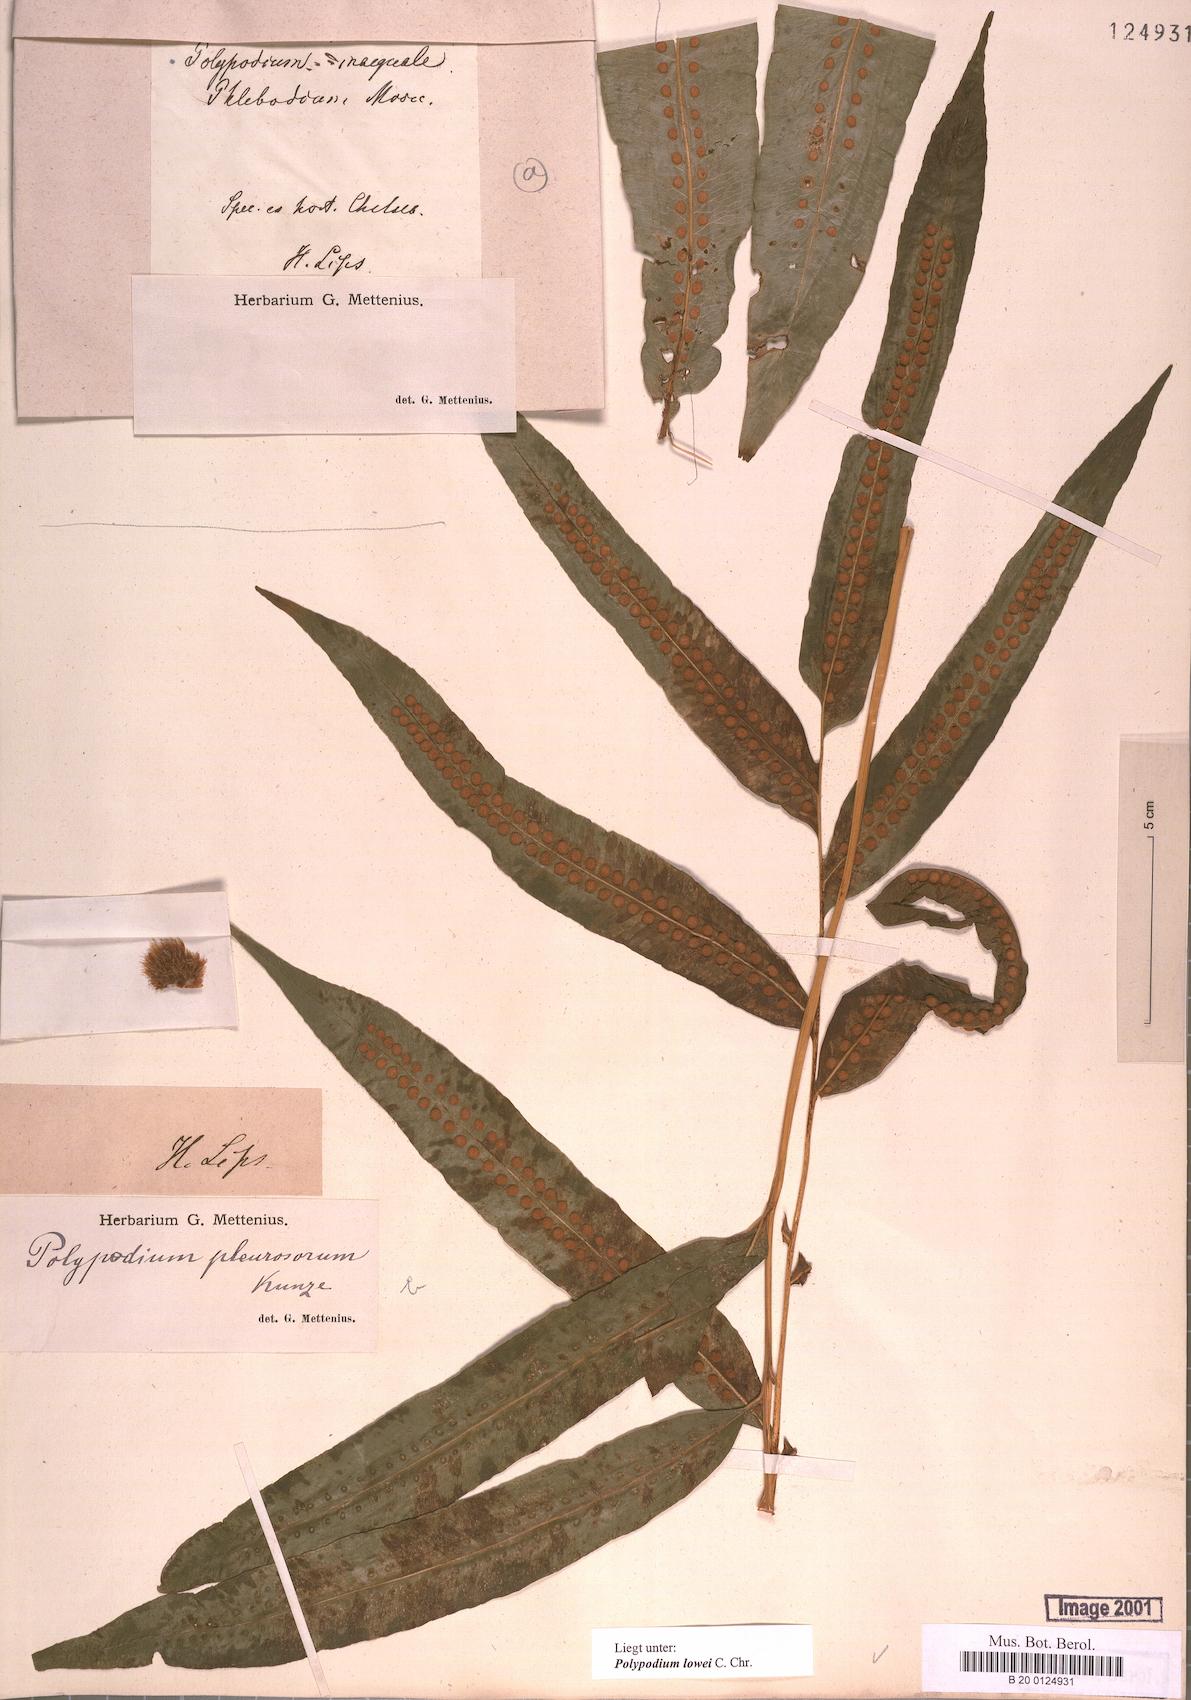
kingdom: Plantae
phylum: Tracheophyta
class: Polypodiopsida
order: Polypodiales
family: Polypodiaceae
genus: Polypodium
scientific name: Polypodium pleurosorum
